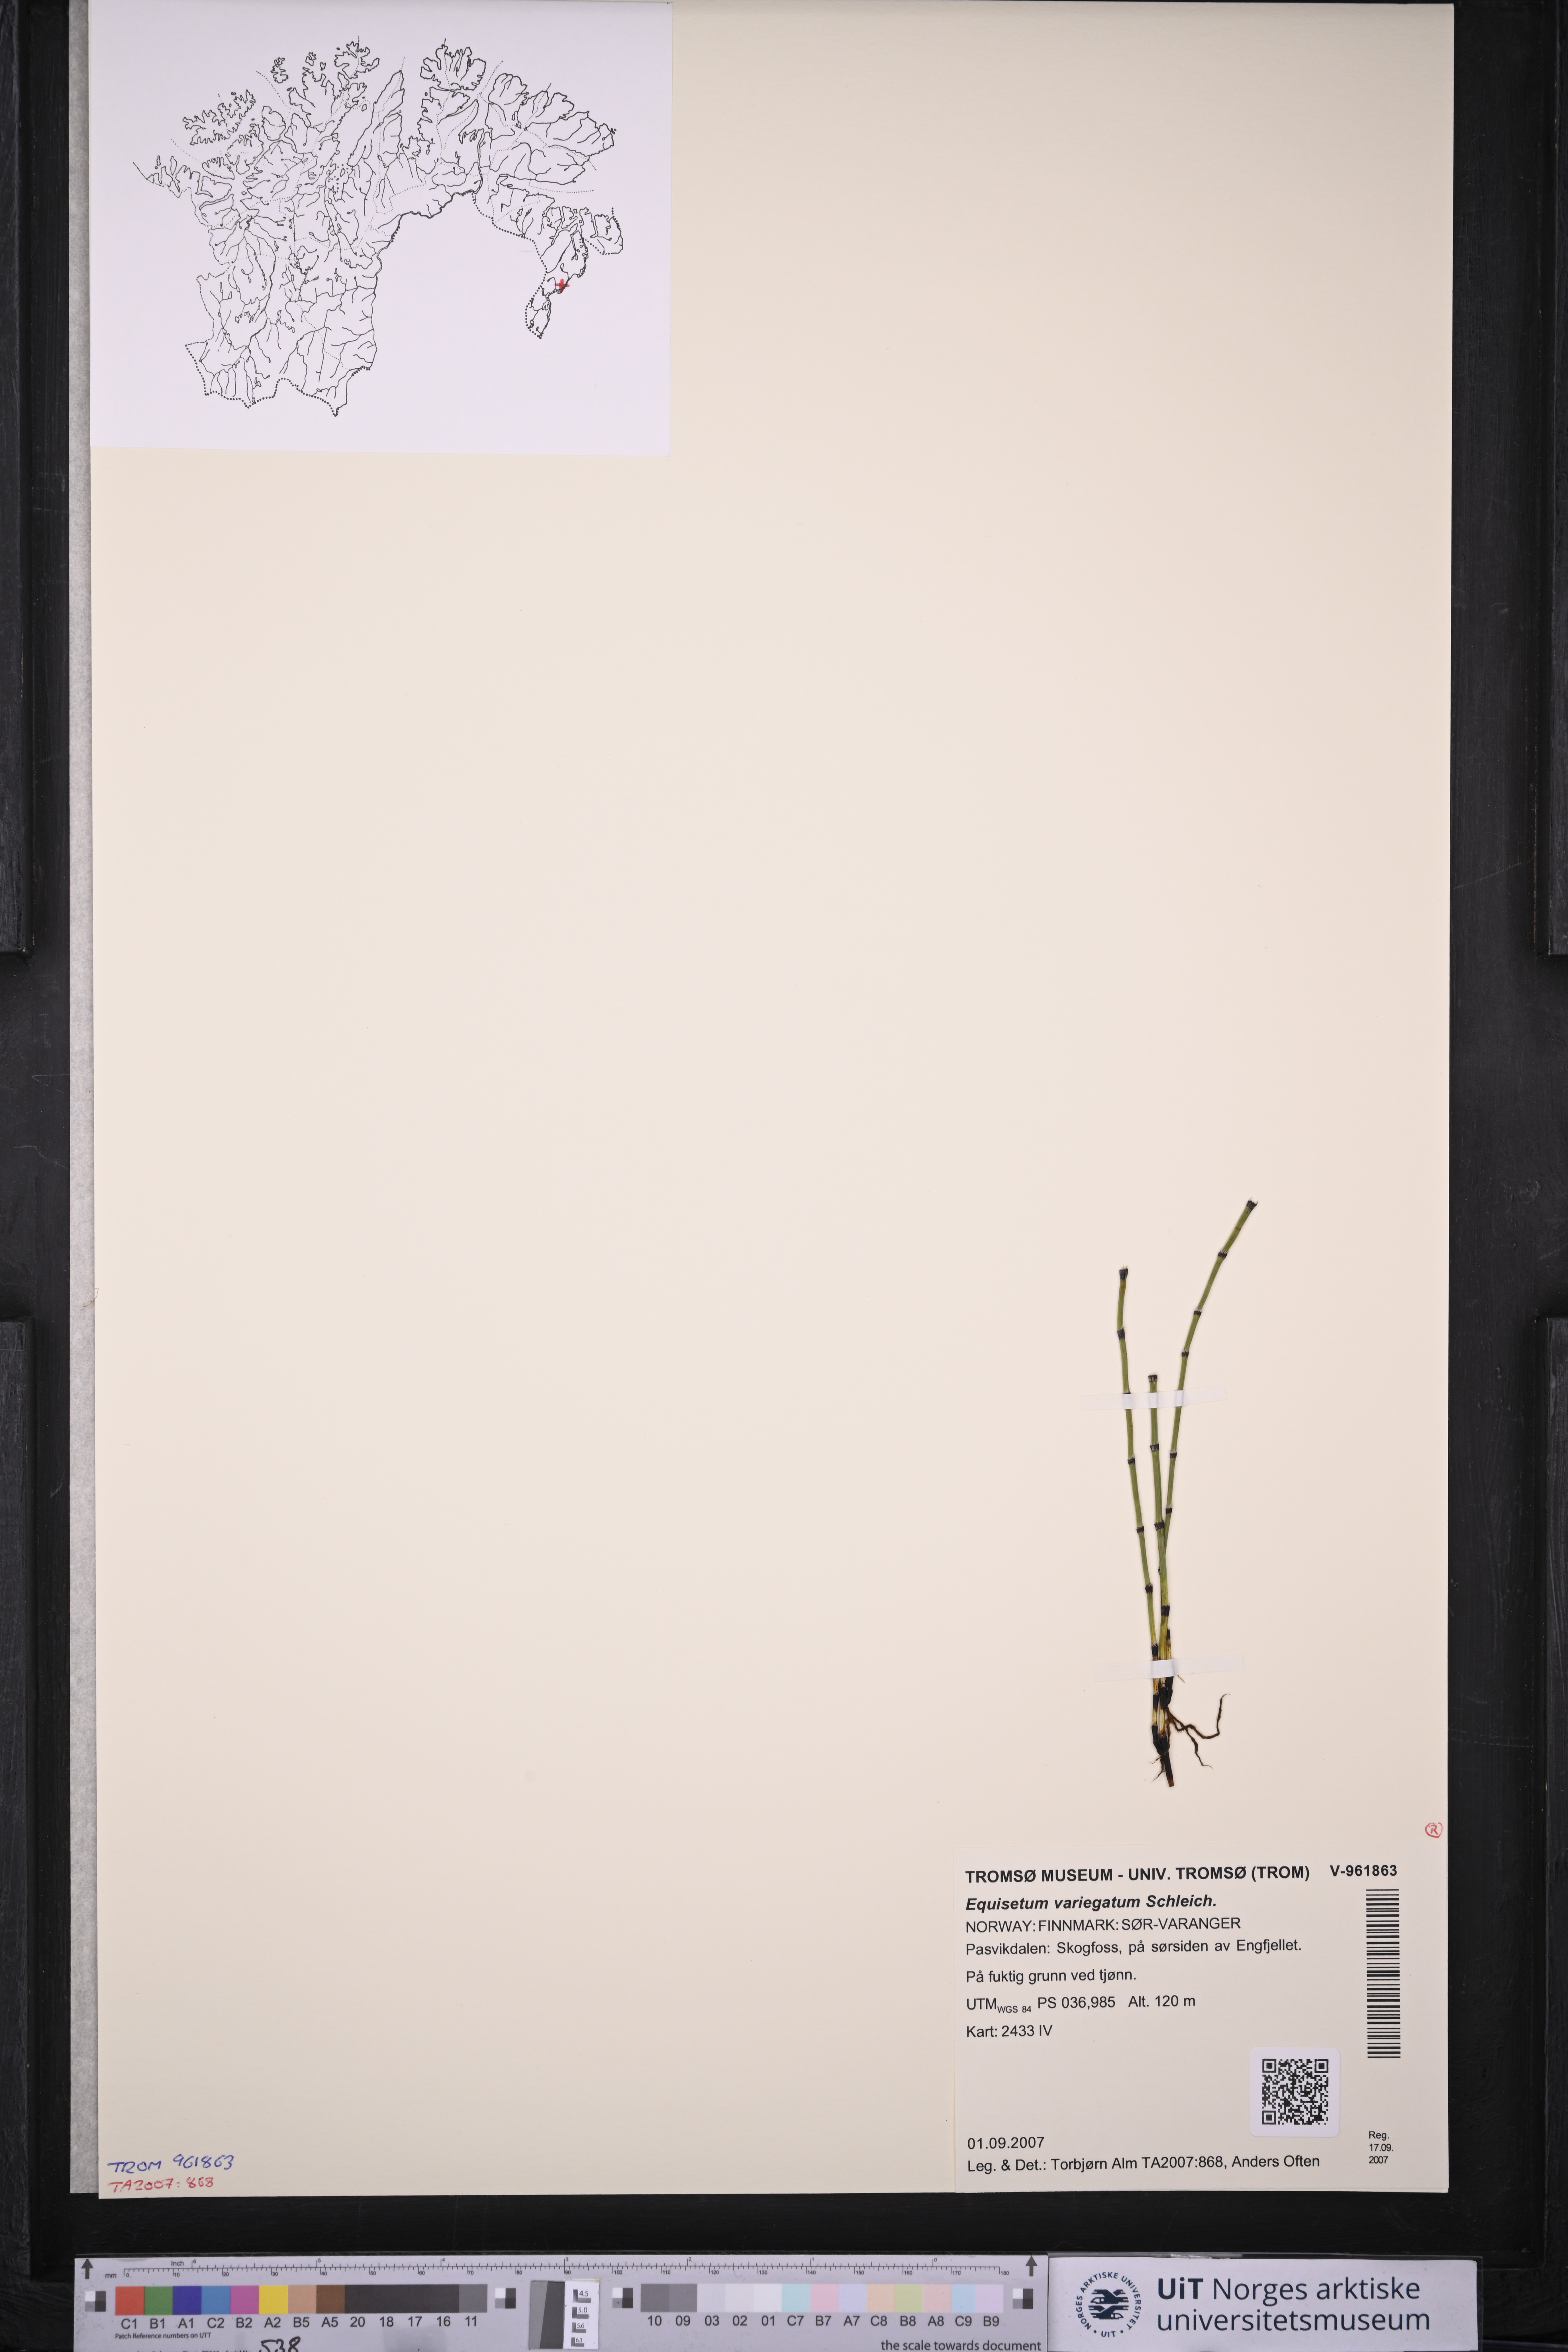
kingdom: Plantae
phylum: Tracheophyta
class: Polypodiopsida
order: Equisetales
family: Equisetaceae
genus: Equisetum
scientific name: Equisetum variegatum
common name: Variegated horsetail
